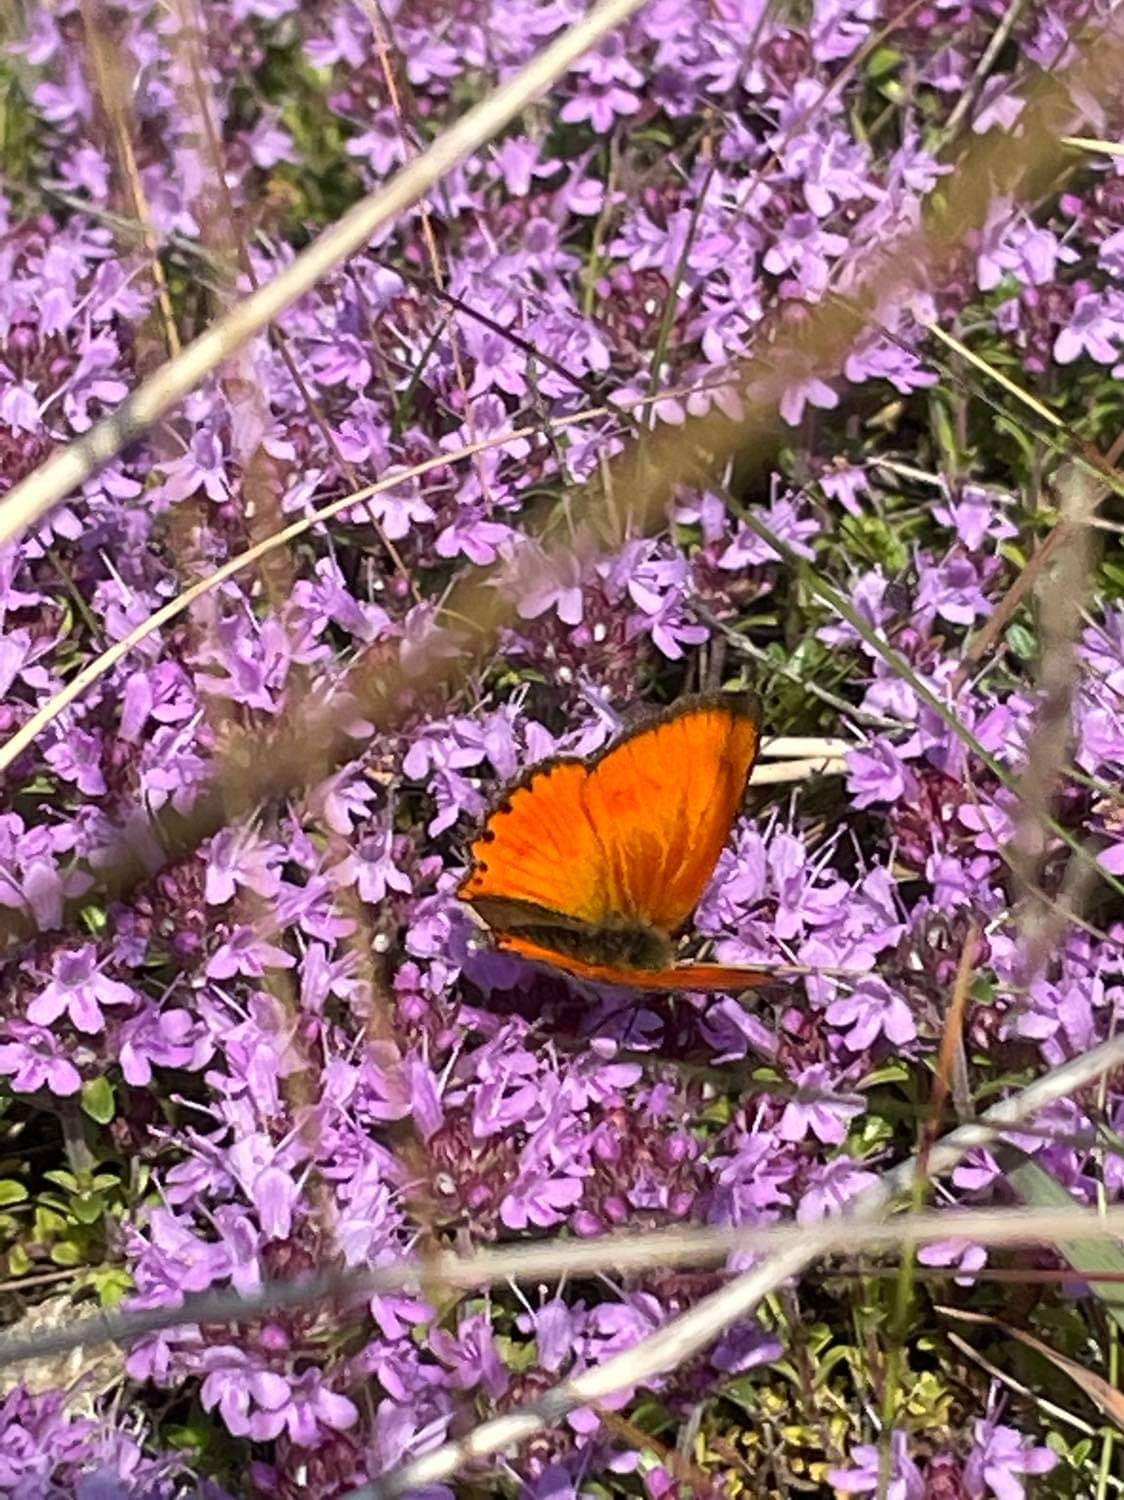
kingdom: Animalia
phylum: Arthropoda
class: Insecta
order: Lepidoptera
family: Lycaenidae
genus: Lycaena
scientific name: Lycaena virgaureae
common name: Dukatsommerfugl
